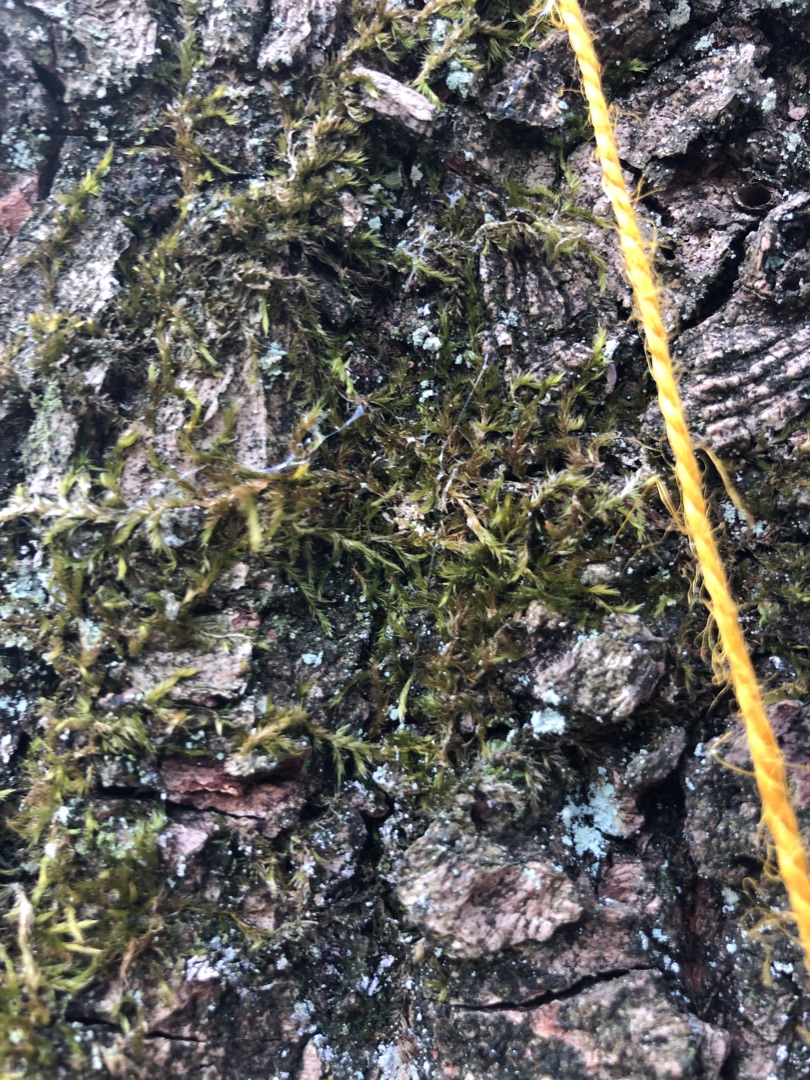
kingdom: Plantae
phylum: Bryophyta
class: Bryopsida
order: Hypnales
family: Hypnaceae
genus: Hypnum
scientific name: Hypnum
